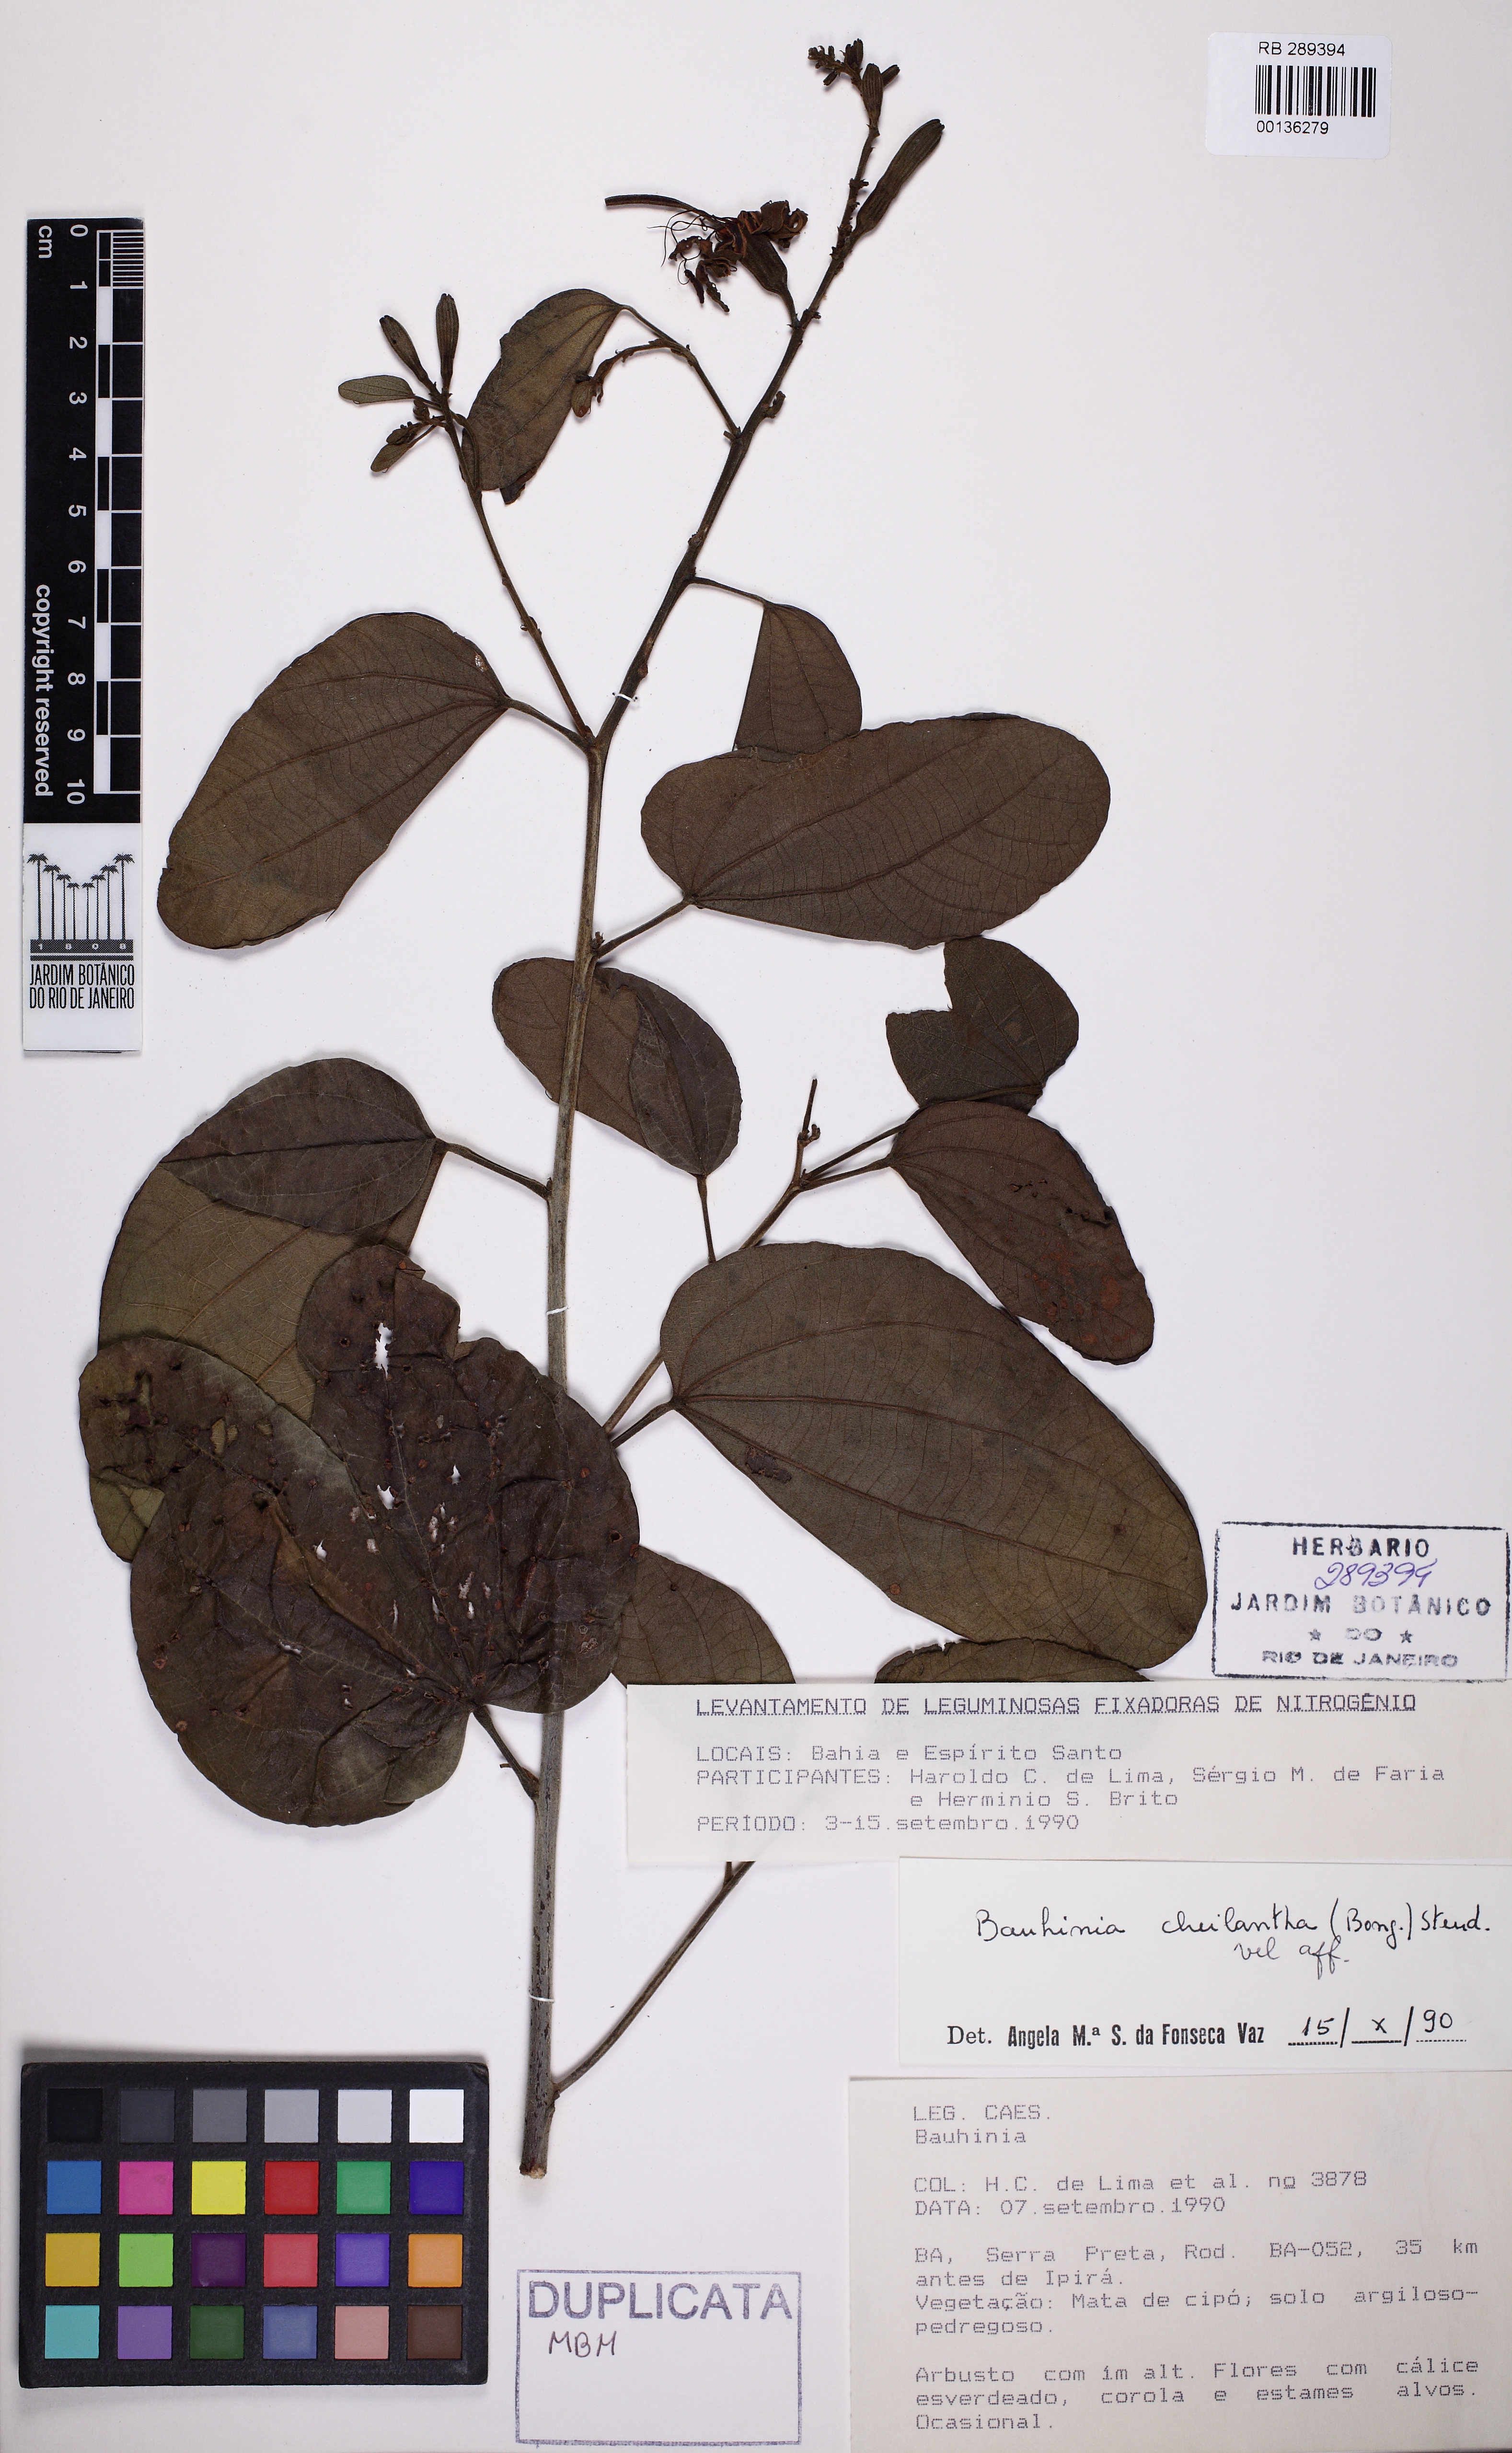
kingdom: Plantae
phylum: Tracheophyta
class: Magnoliopsida
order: Fabales
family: Fabaceae
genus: Bauhinia
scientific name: Bauhinia cheilantha
